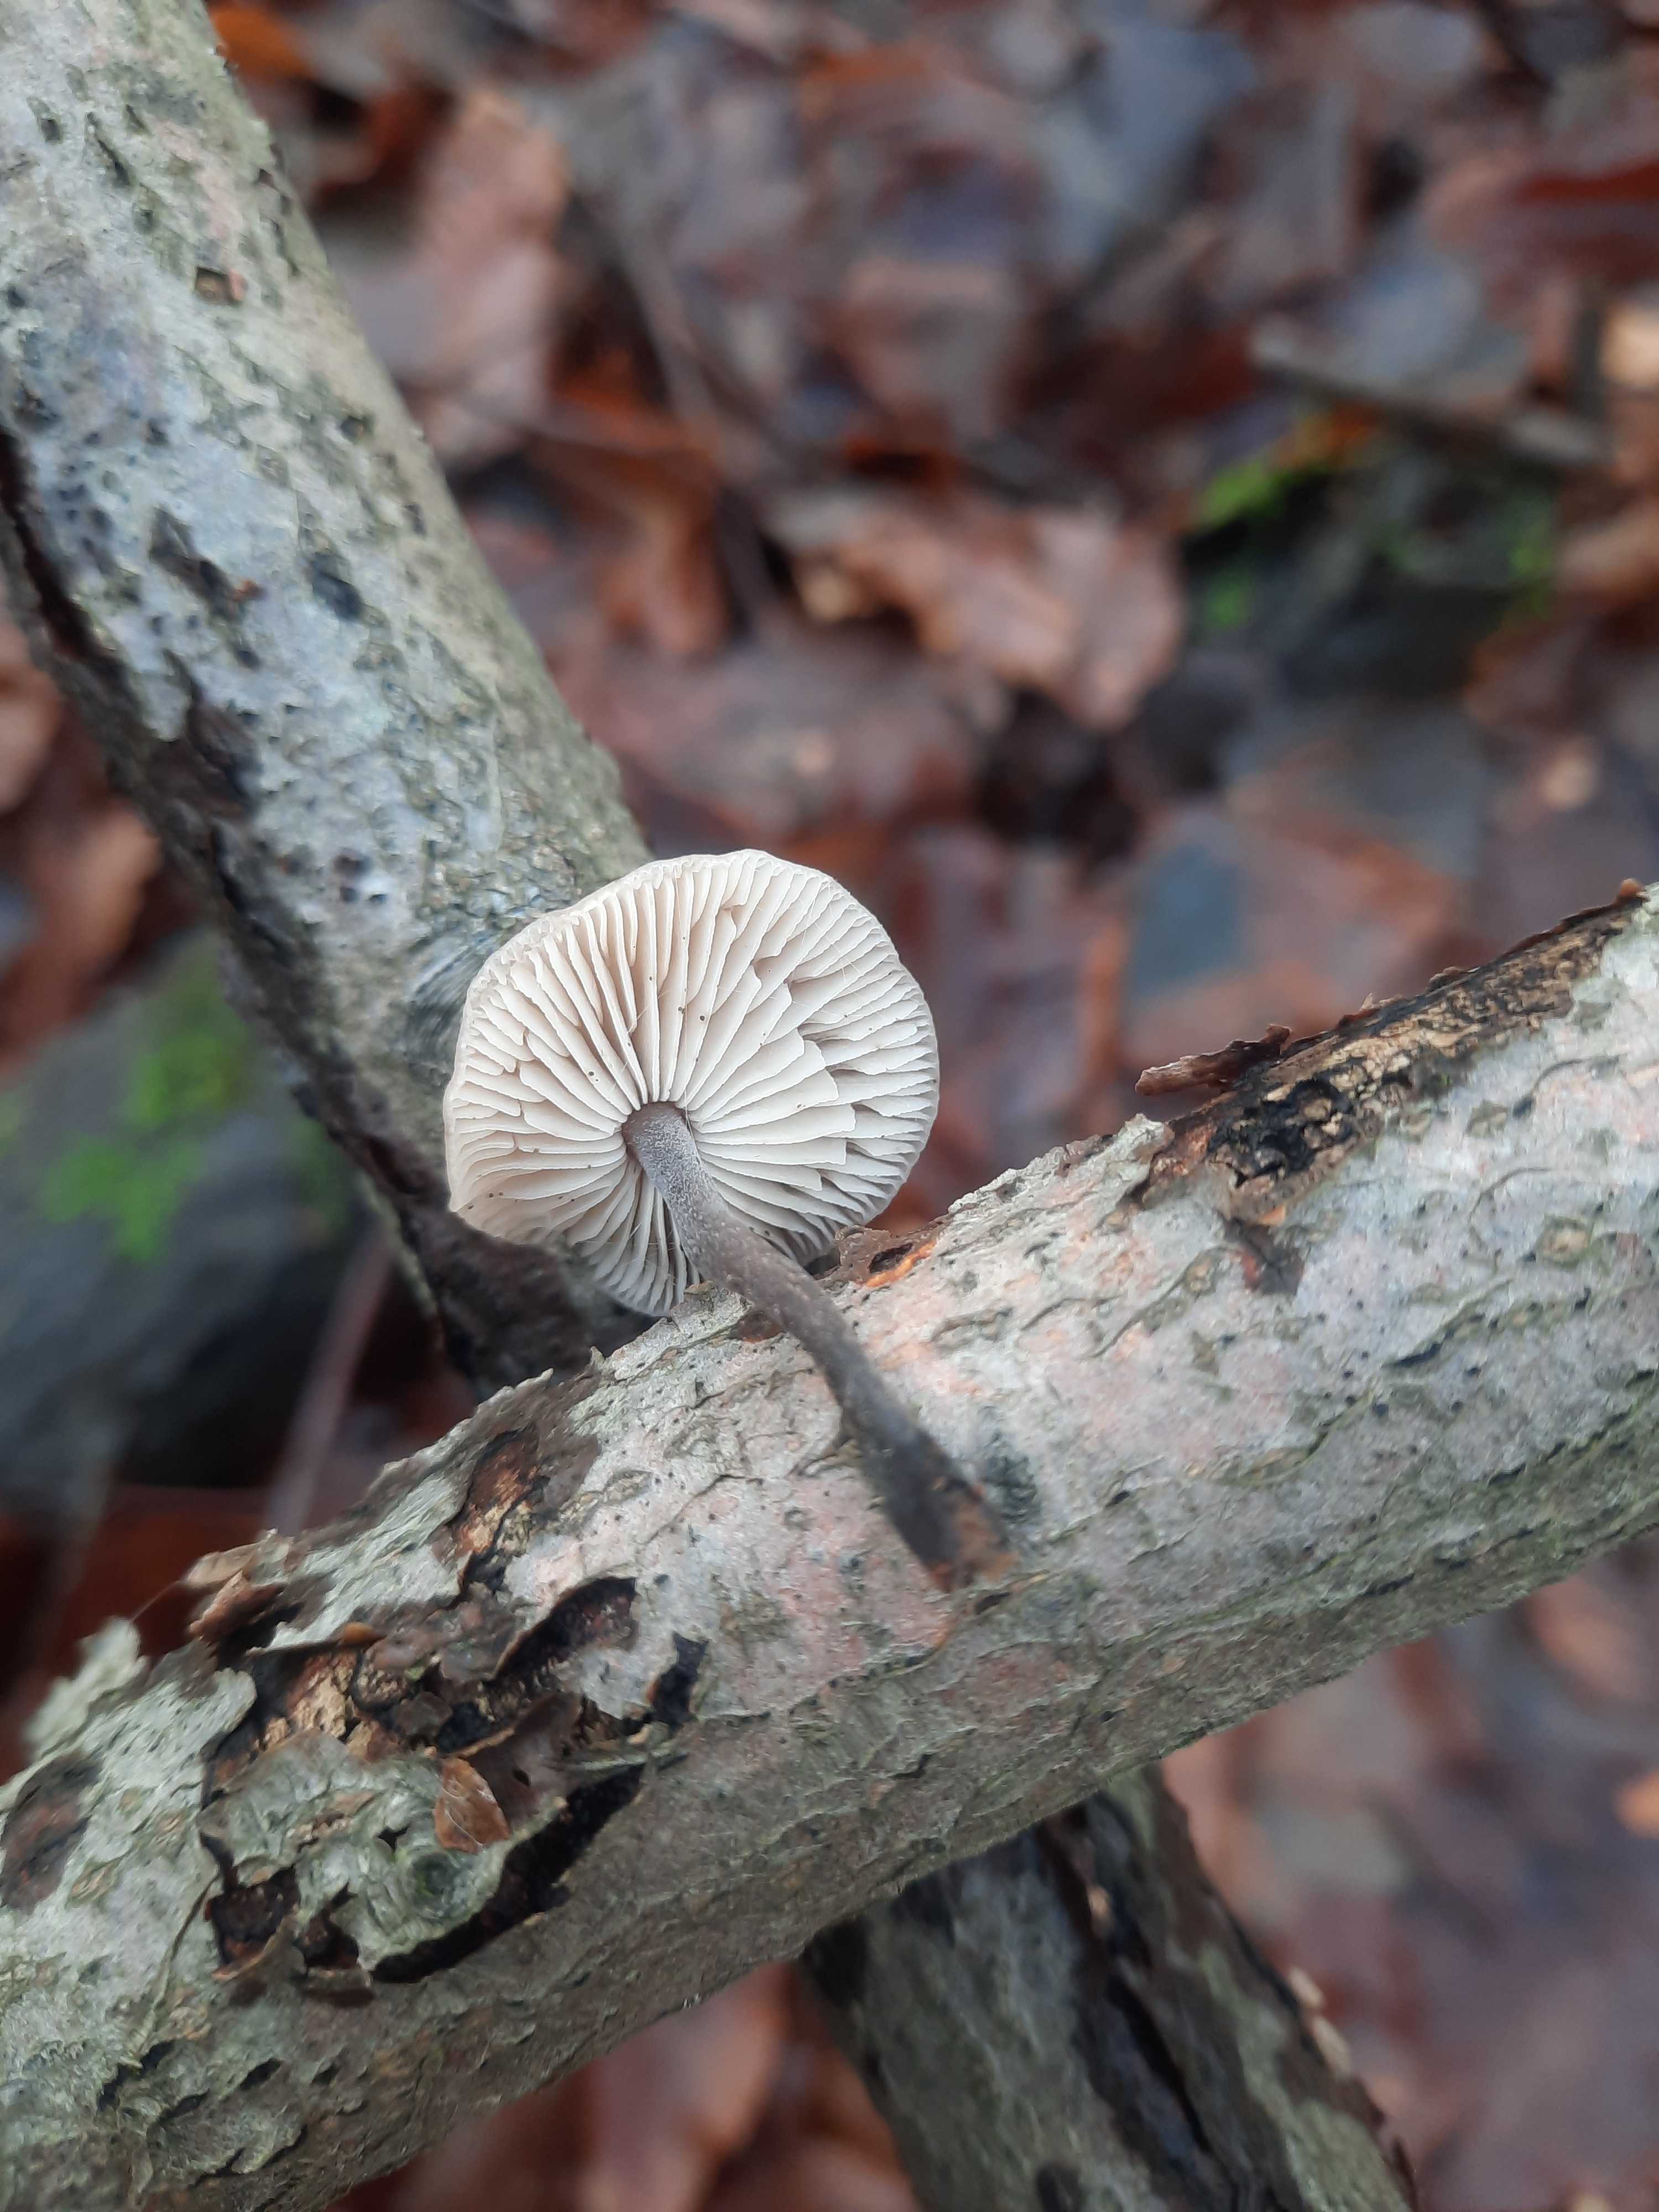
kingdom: Fungi
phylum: Basidiomycota
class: Agaricomycetes
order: Agaricales
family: Omphalotaceae
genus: Mycetinis
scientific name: Mycetinis alliaceus
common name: stor løghat
